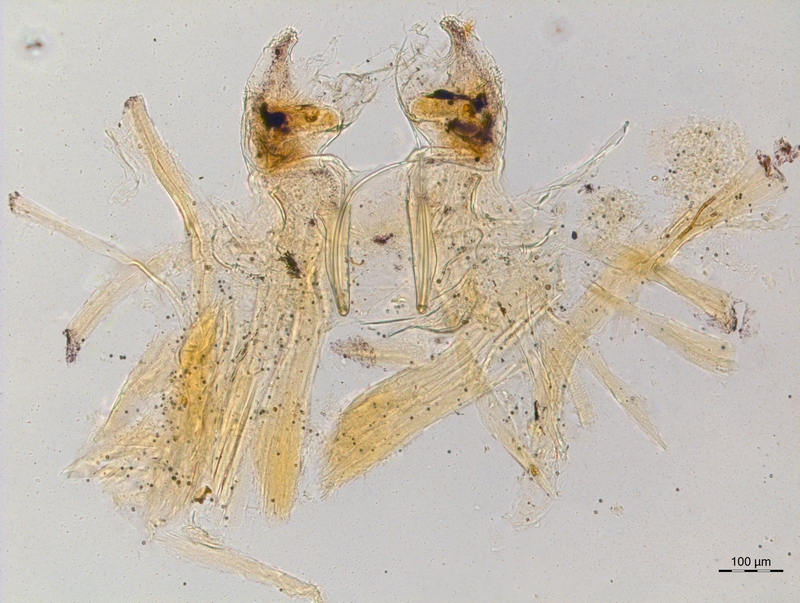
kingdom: Animalia
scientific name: Animalia
